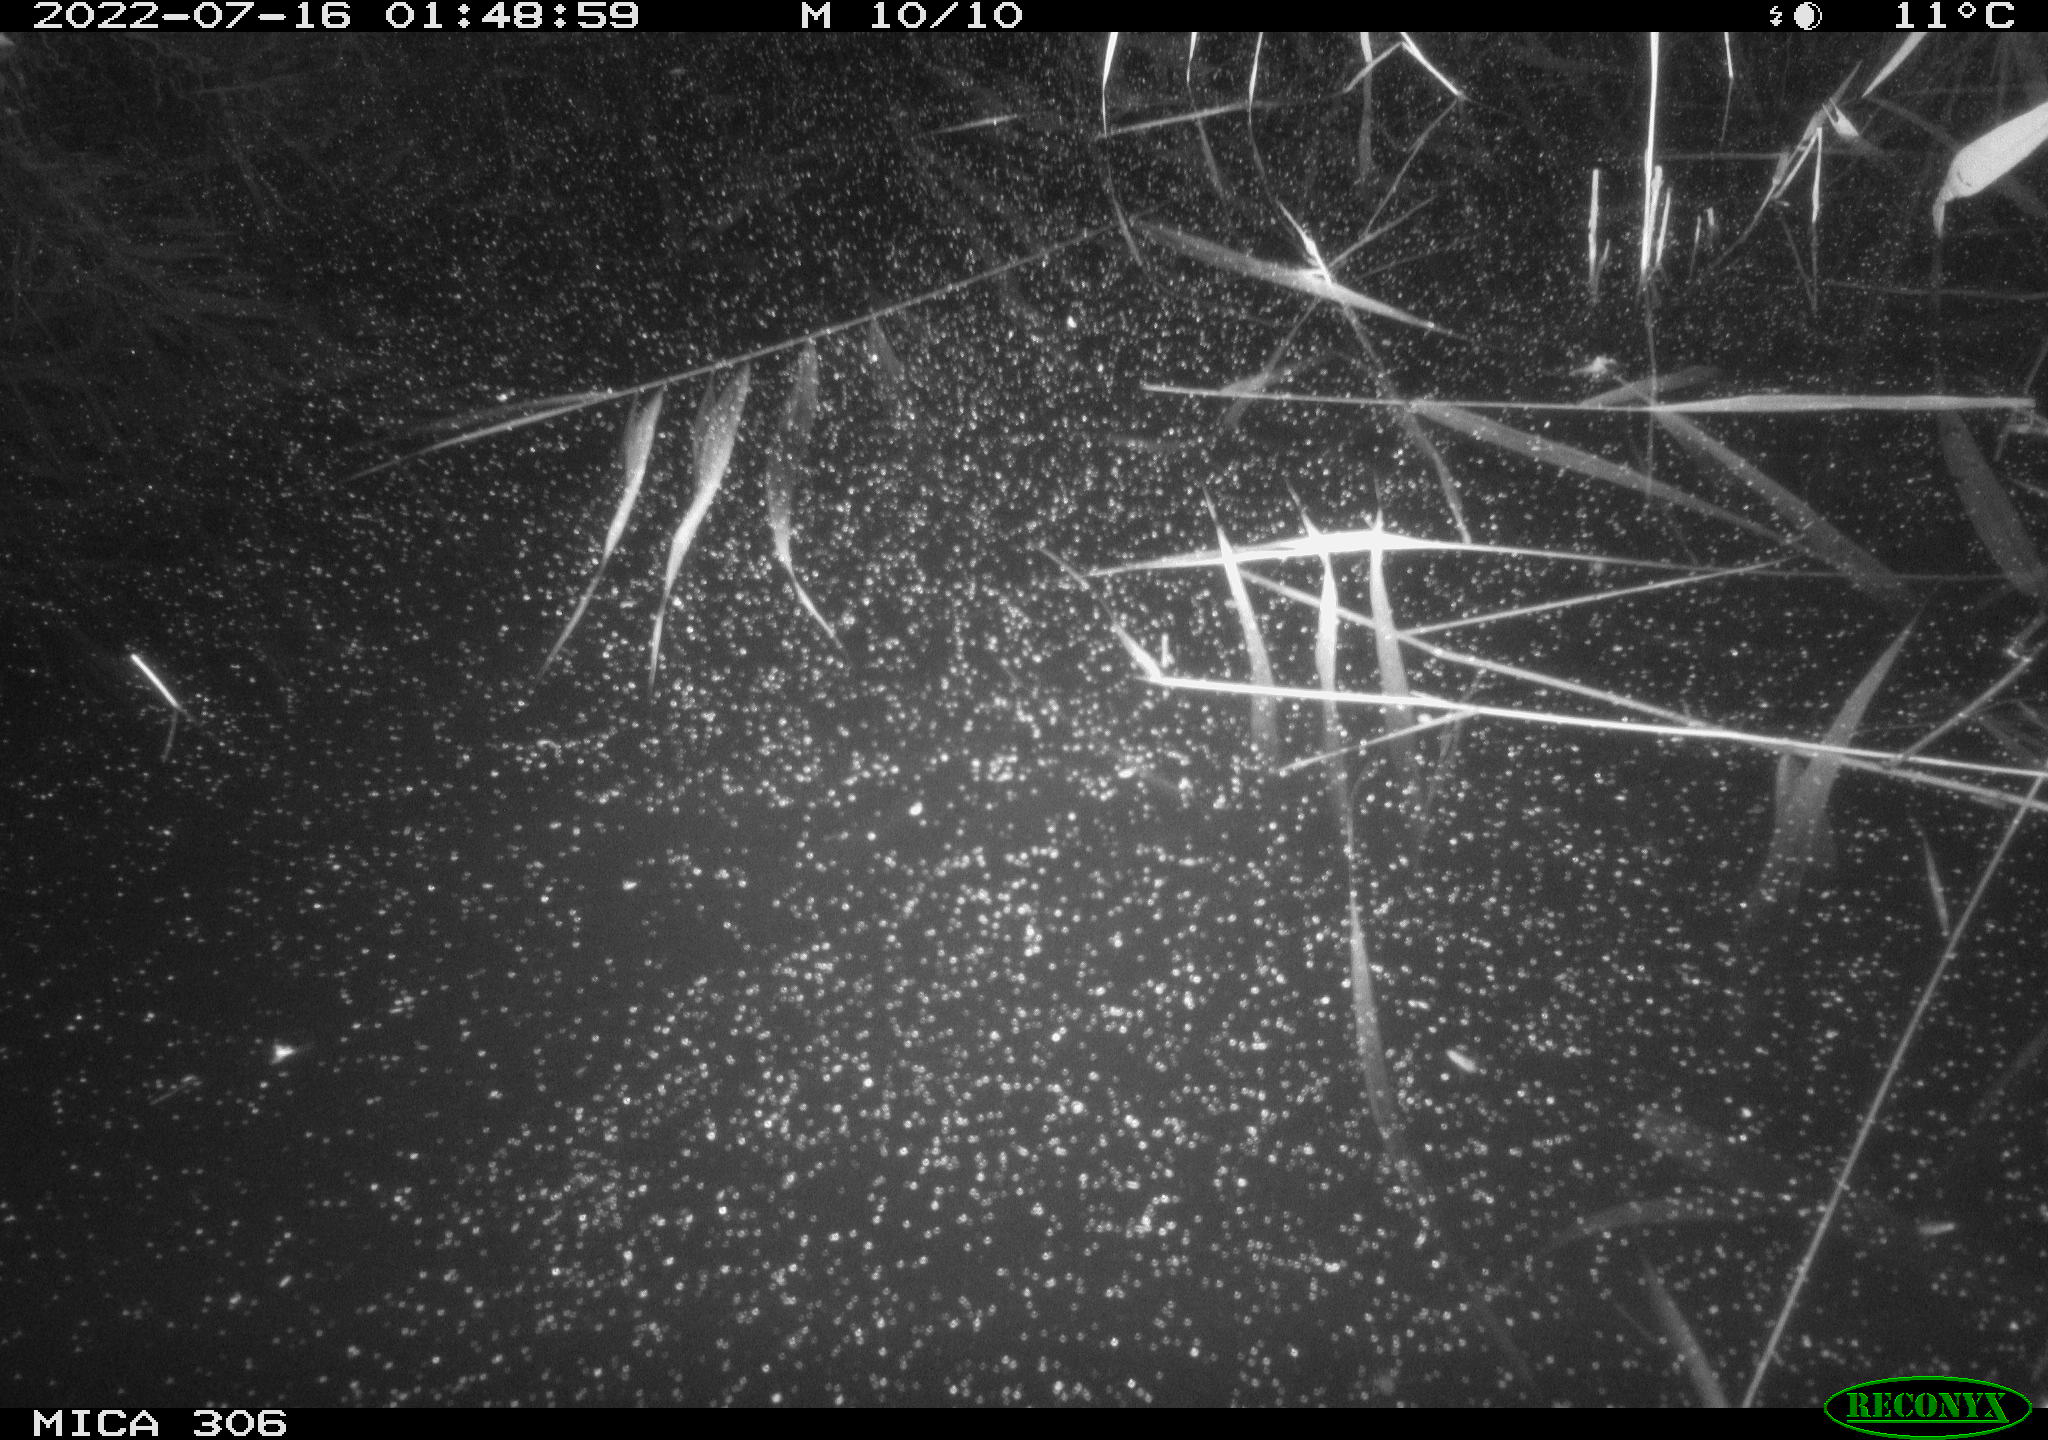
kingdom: Animalia
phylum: Chordata
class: Mammalia
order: Rodentia
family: Muridae
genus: Rattus
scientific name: Rattus norvegicus
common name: Brown rat
